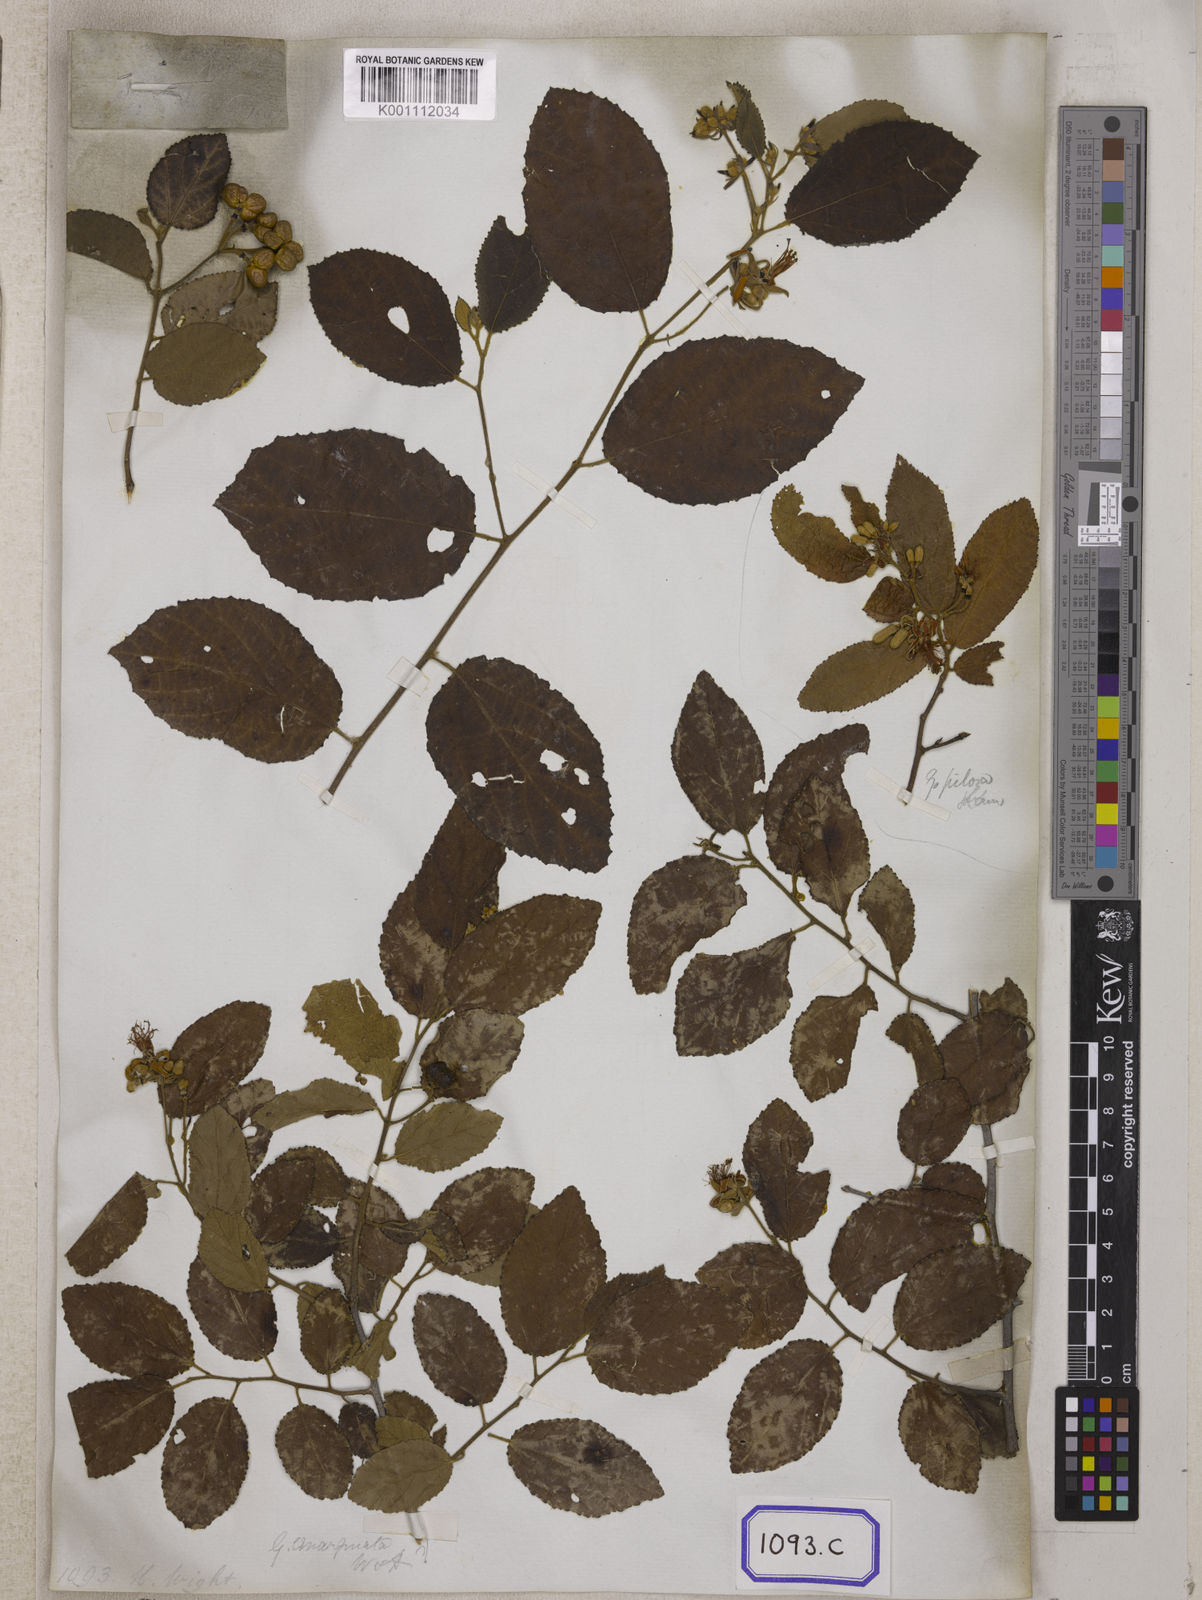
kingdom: Plantae
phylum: Tracheophyta
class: Magnoliopsida
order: Malvales
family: Malvaceae
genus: Grewia
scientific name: Grewia carpinifolia
